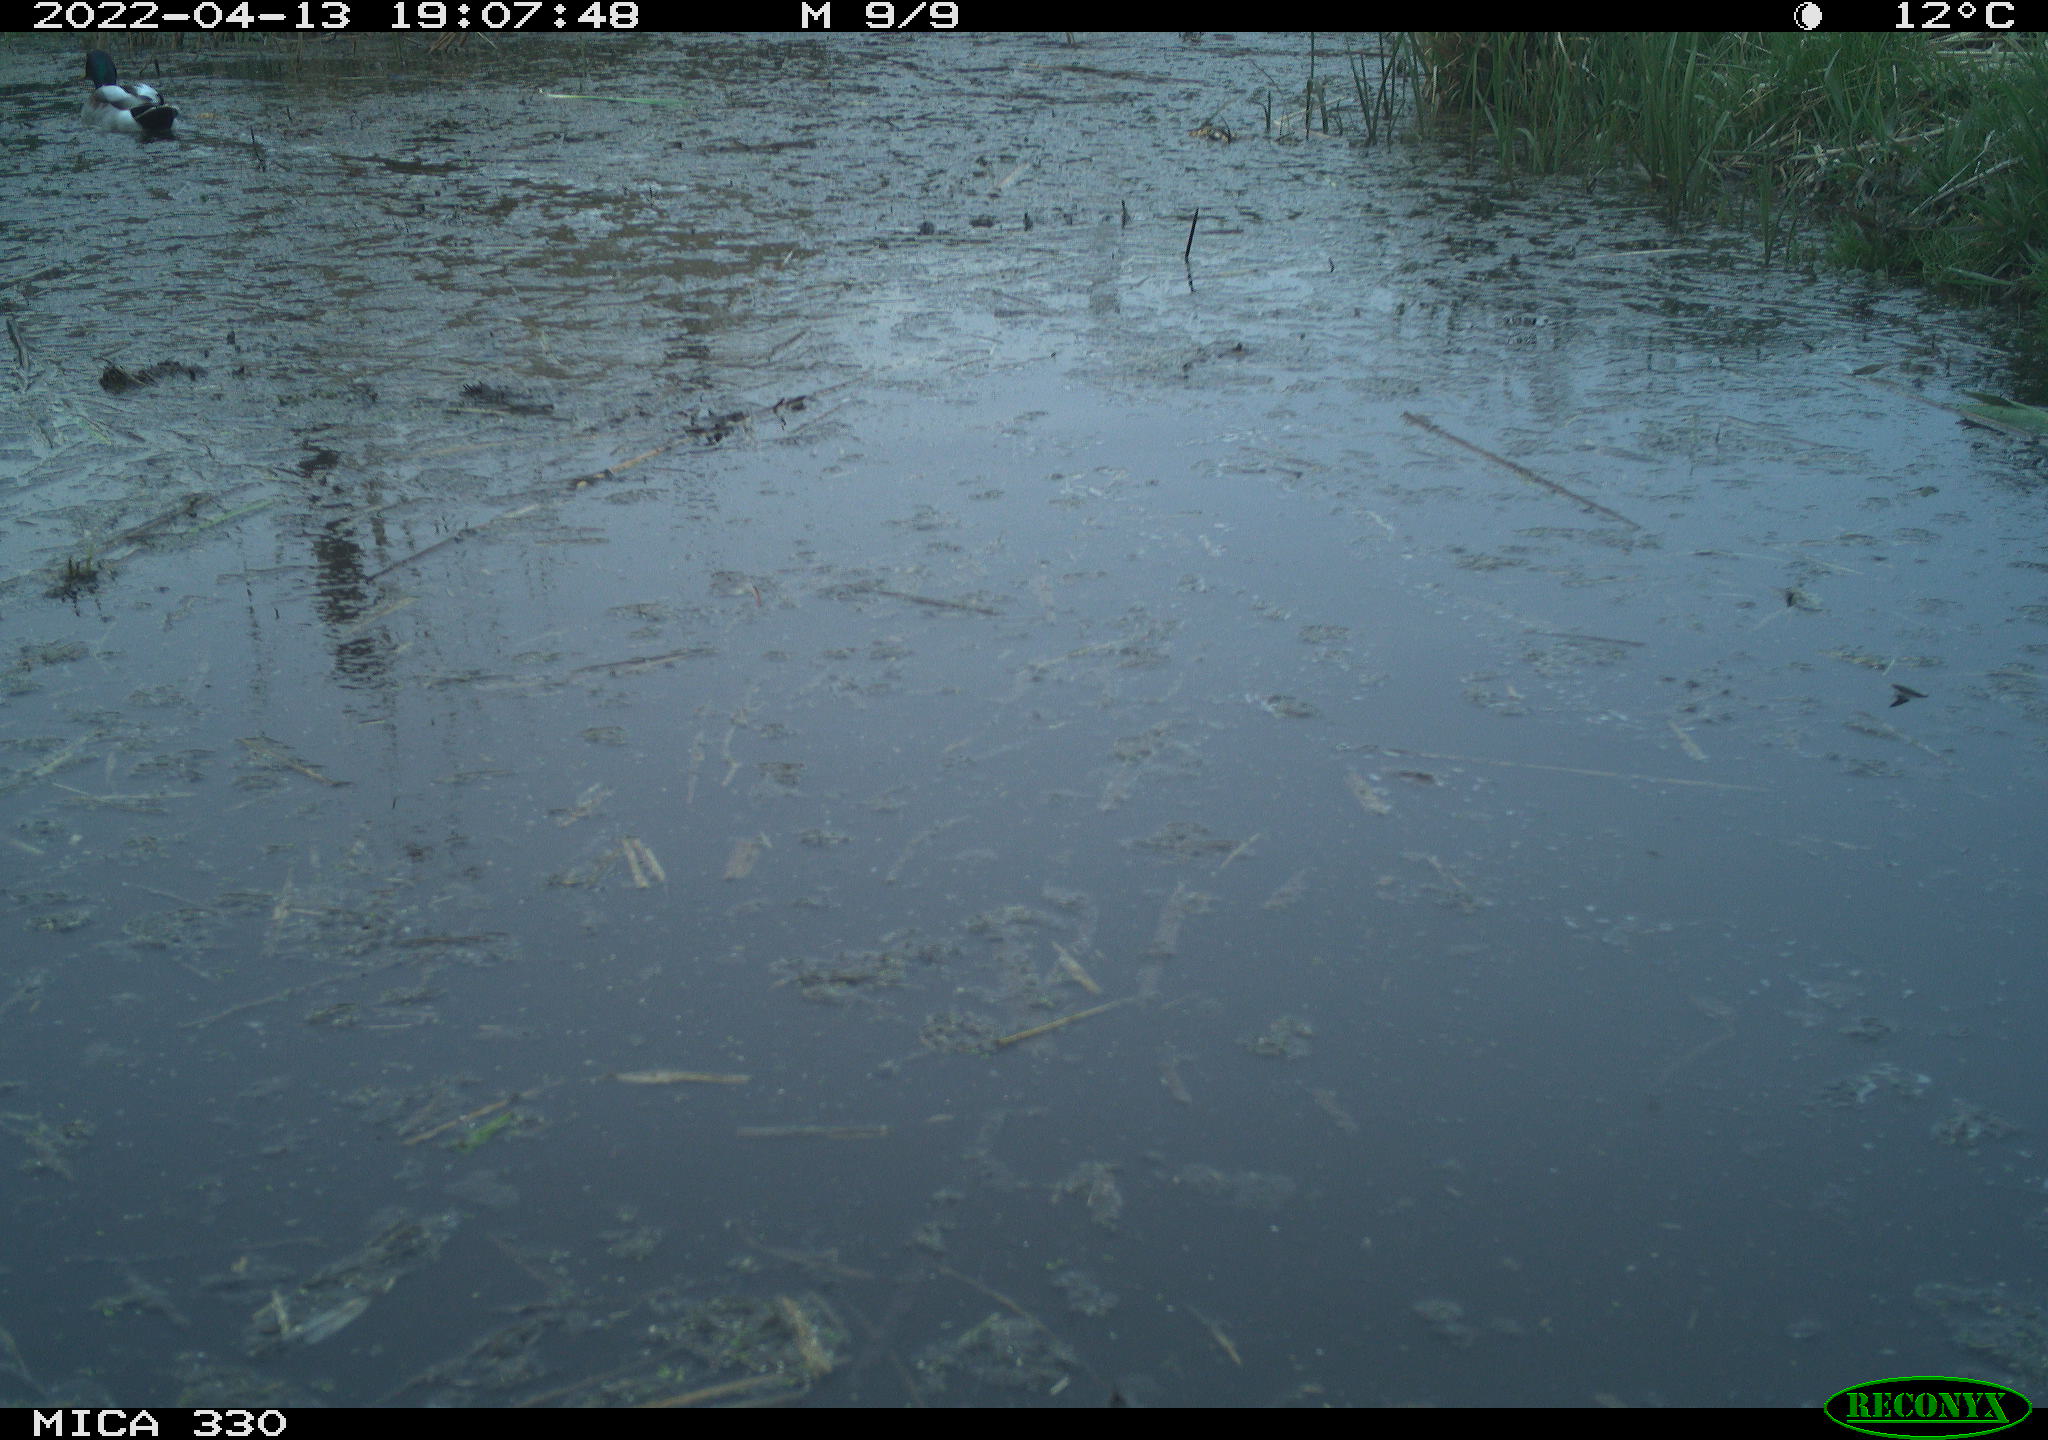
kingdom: Animalia
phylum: Chordata
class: Aves
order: Anseriformes
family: Anatidae
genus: Anas
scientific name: Anas platyrhynchos
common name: Mallard
